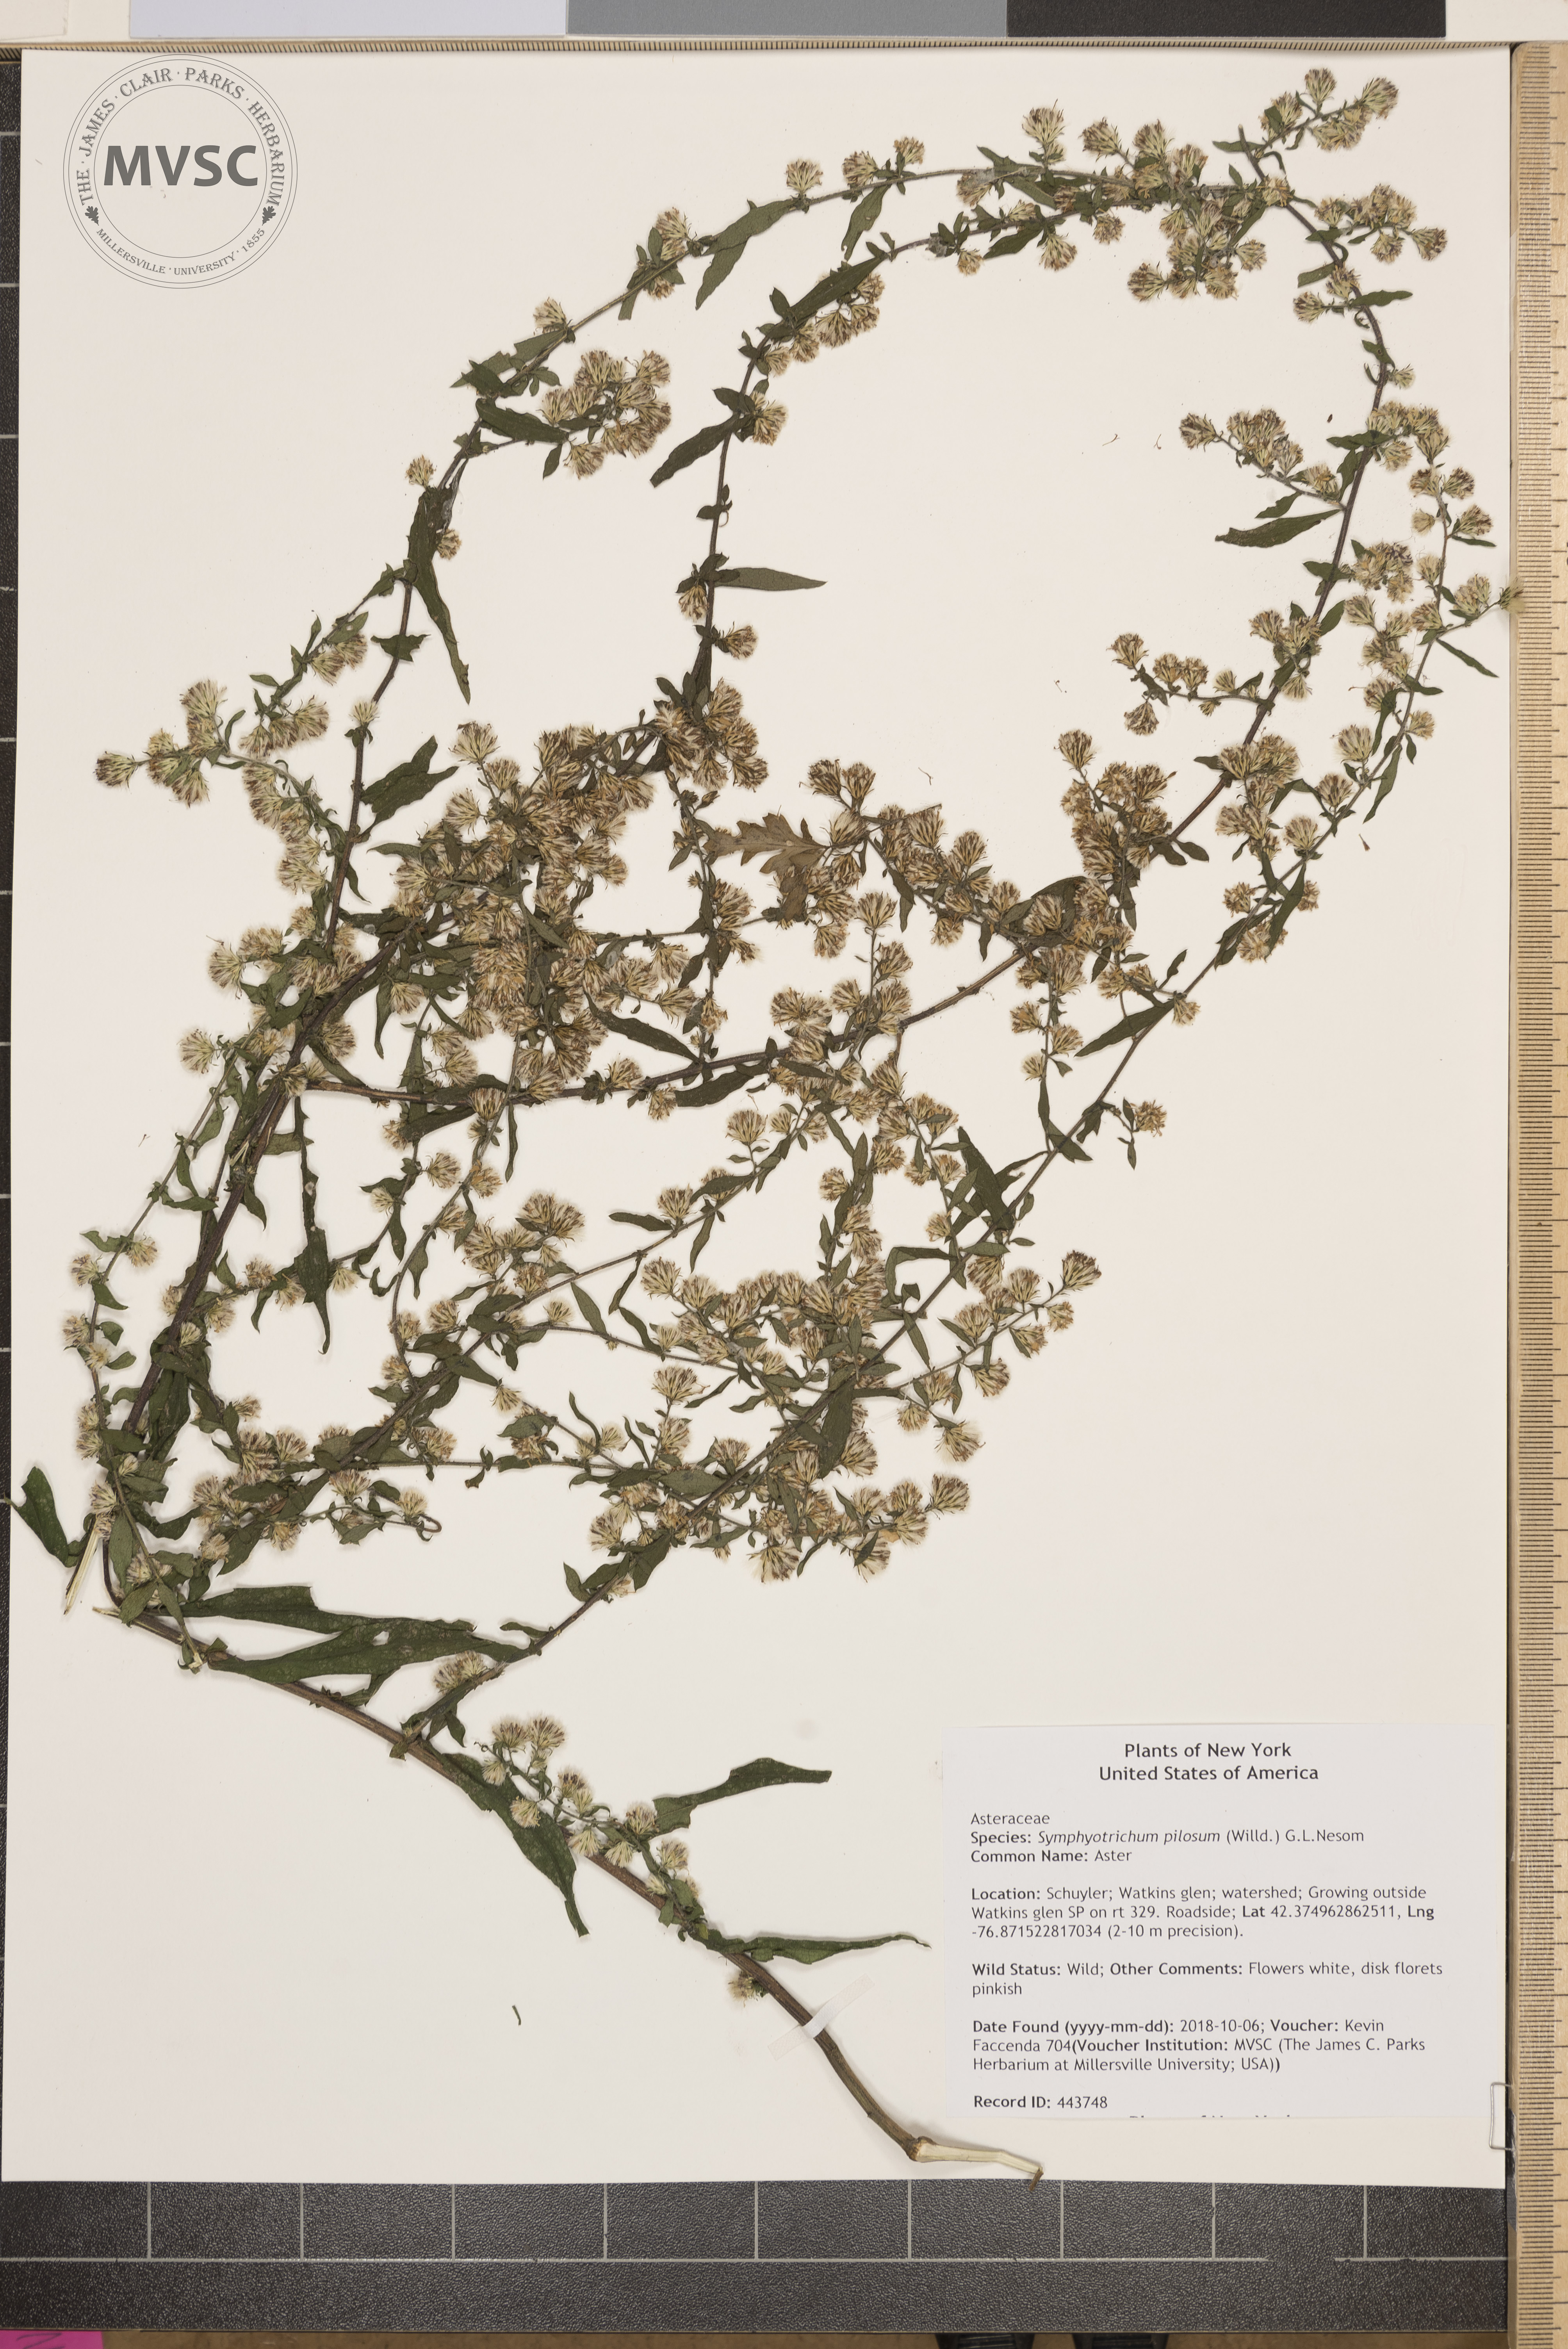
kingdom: Plantae
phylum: Tracheophyta
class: Magnoliopsida
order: Asterales
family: Asteraceae
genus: Symphyotrichum
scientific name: Symphyotrichum pilosum
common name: Aster
